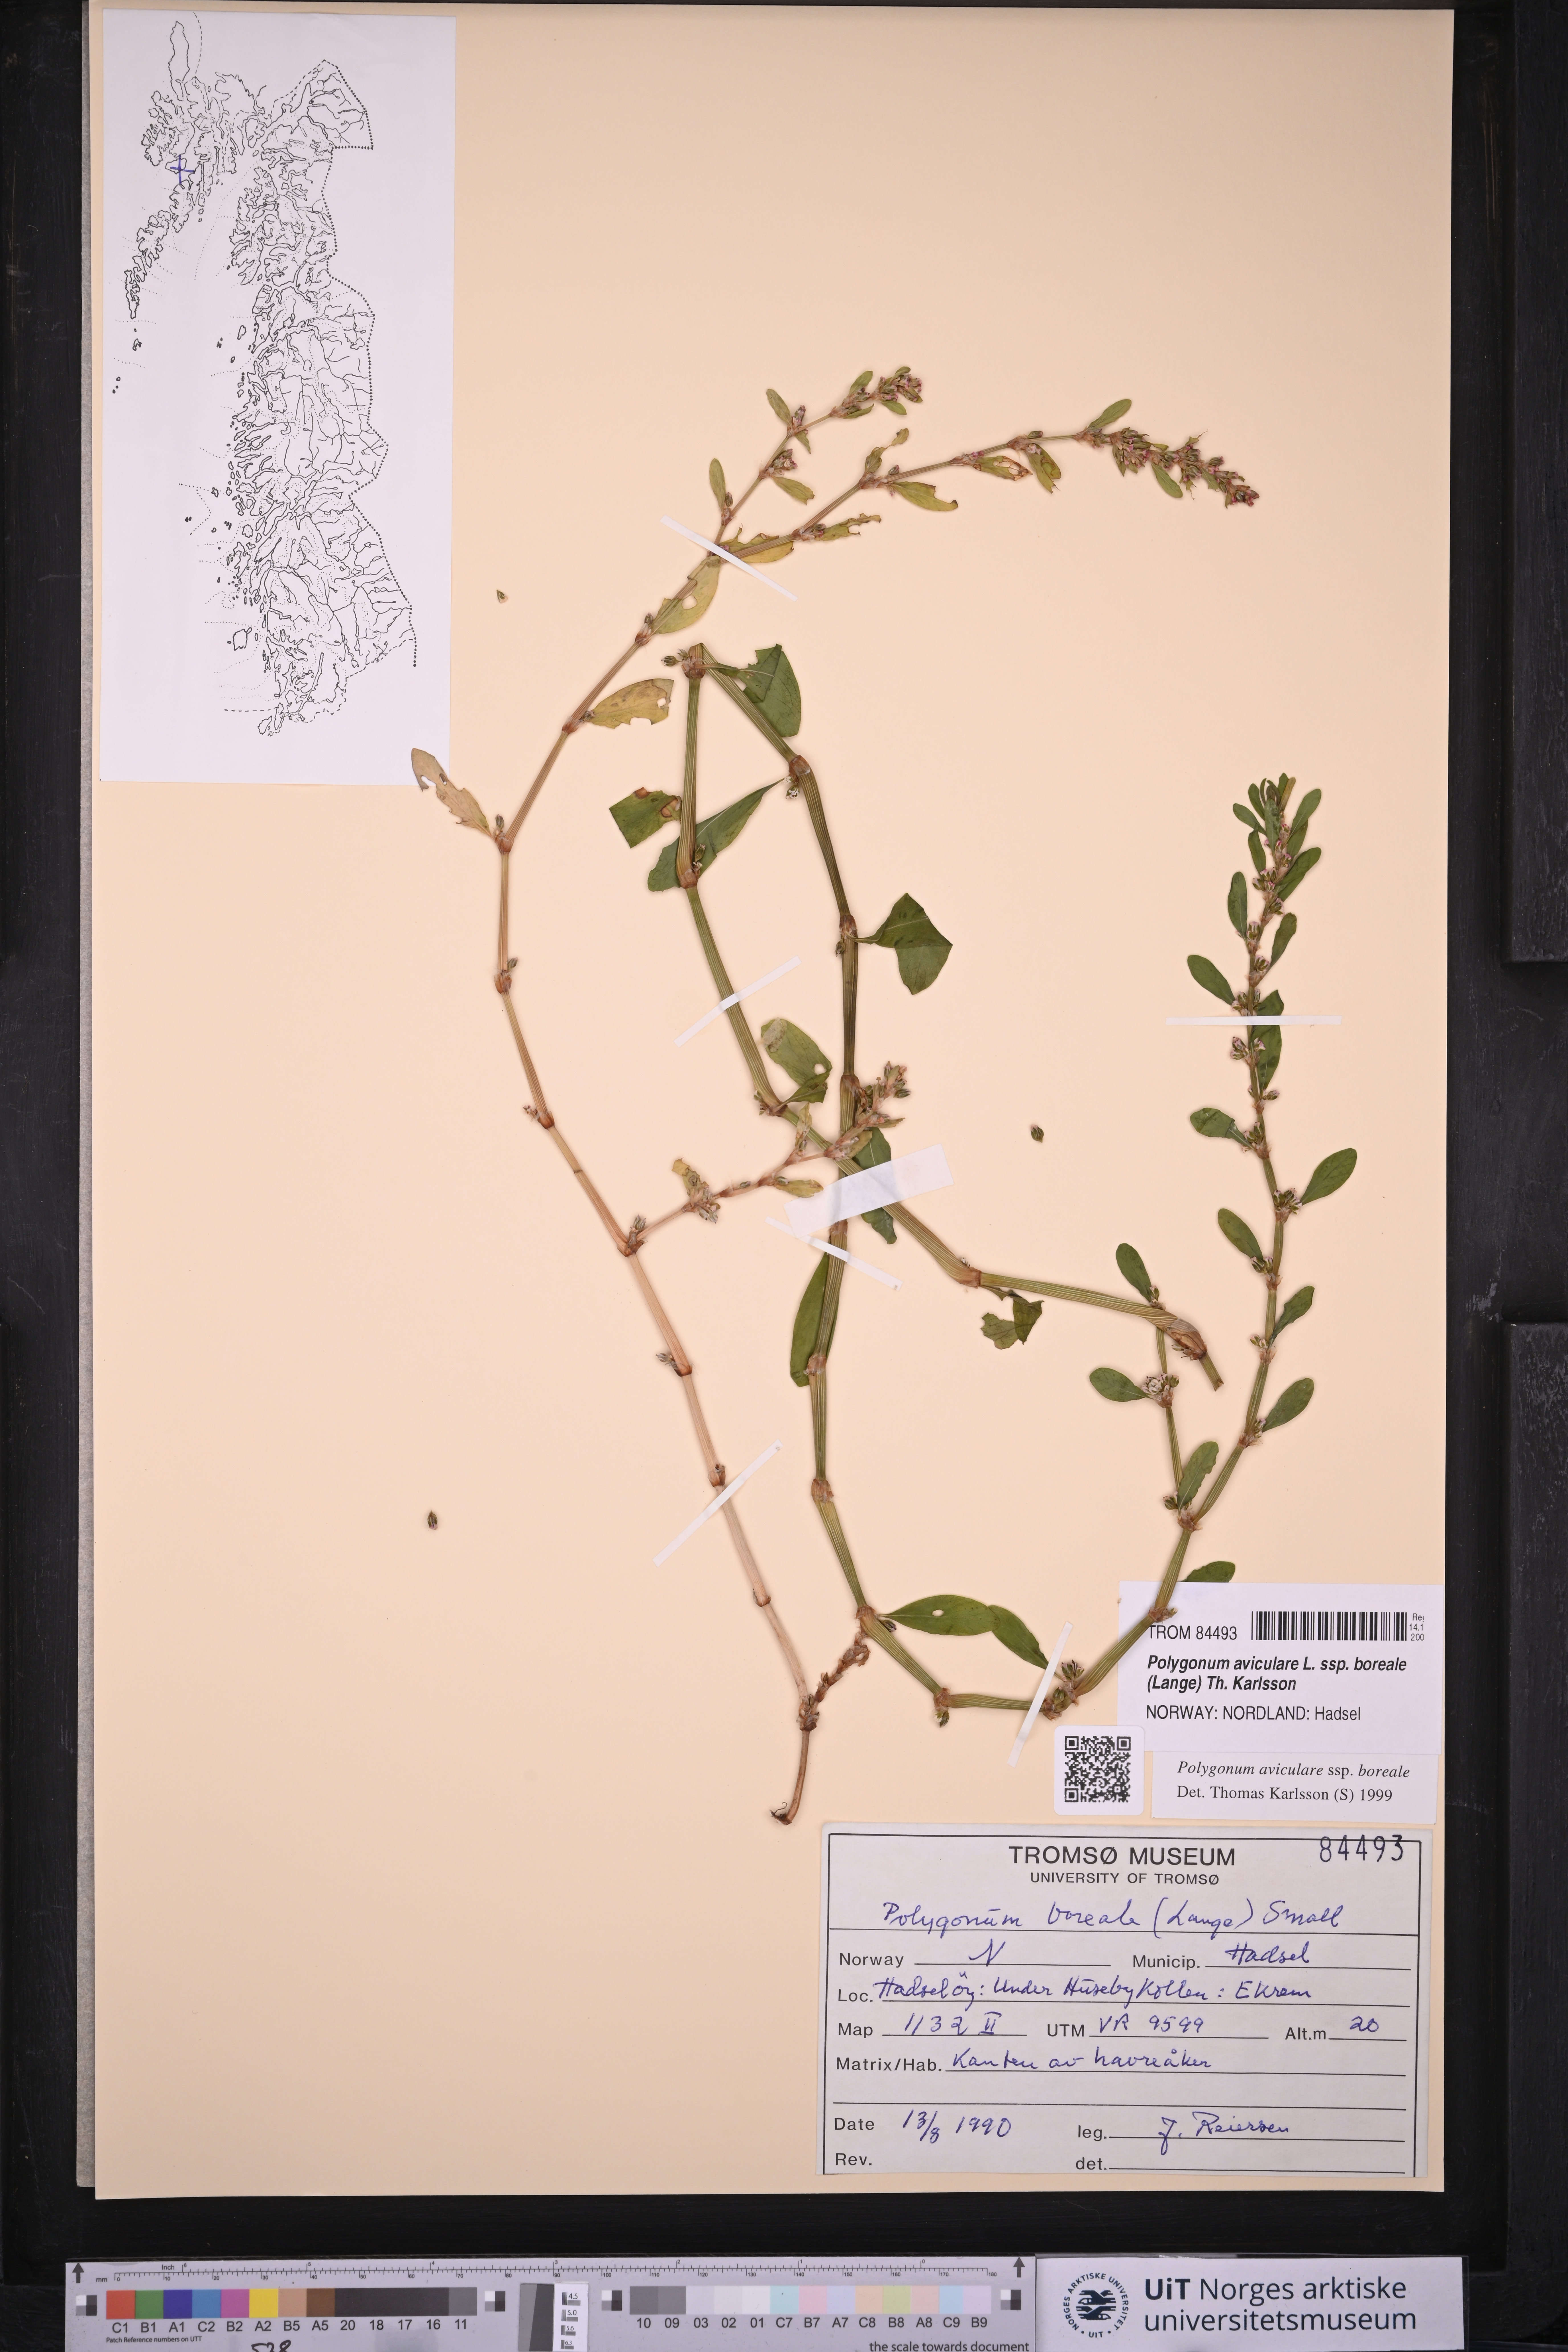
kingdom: Plantae
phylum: Tracheophyta
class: Magnoliopsida
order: Caryophyllales
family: Polygonaceae
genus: Polygonum
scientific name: Polygonum boreale
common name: Northern knotgrass
